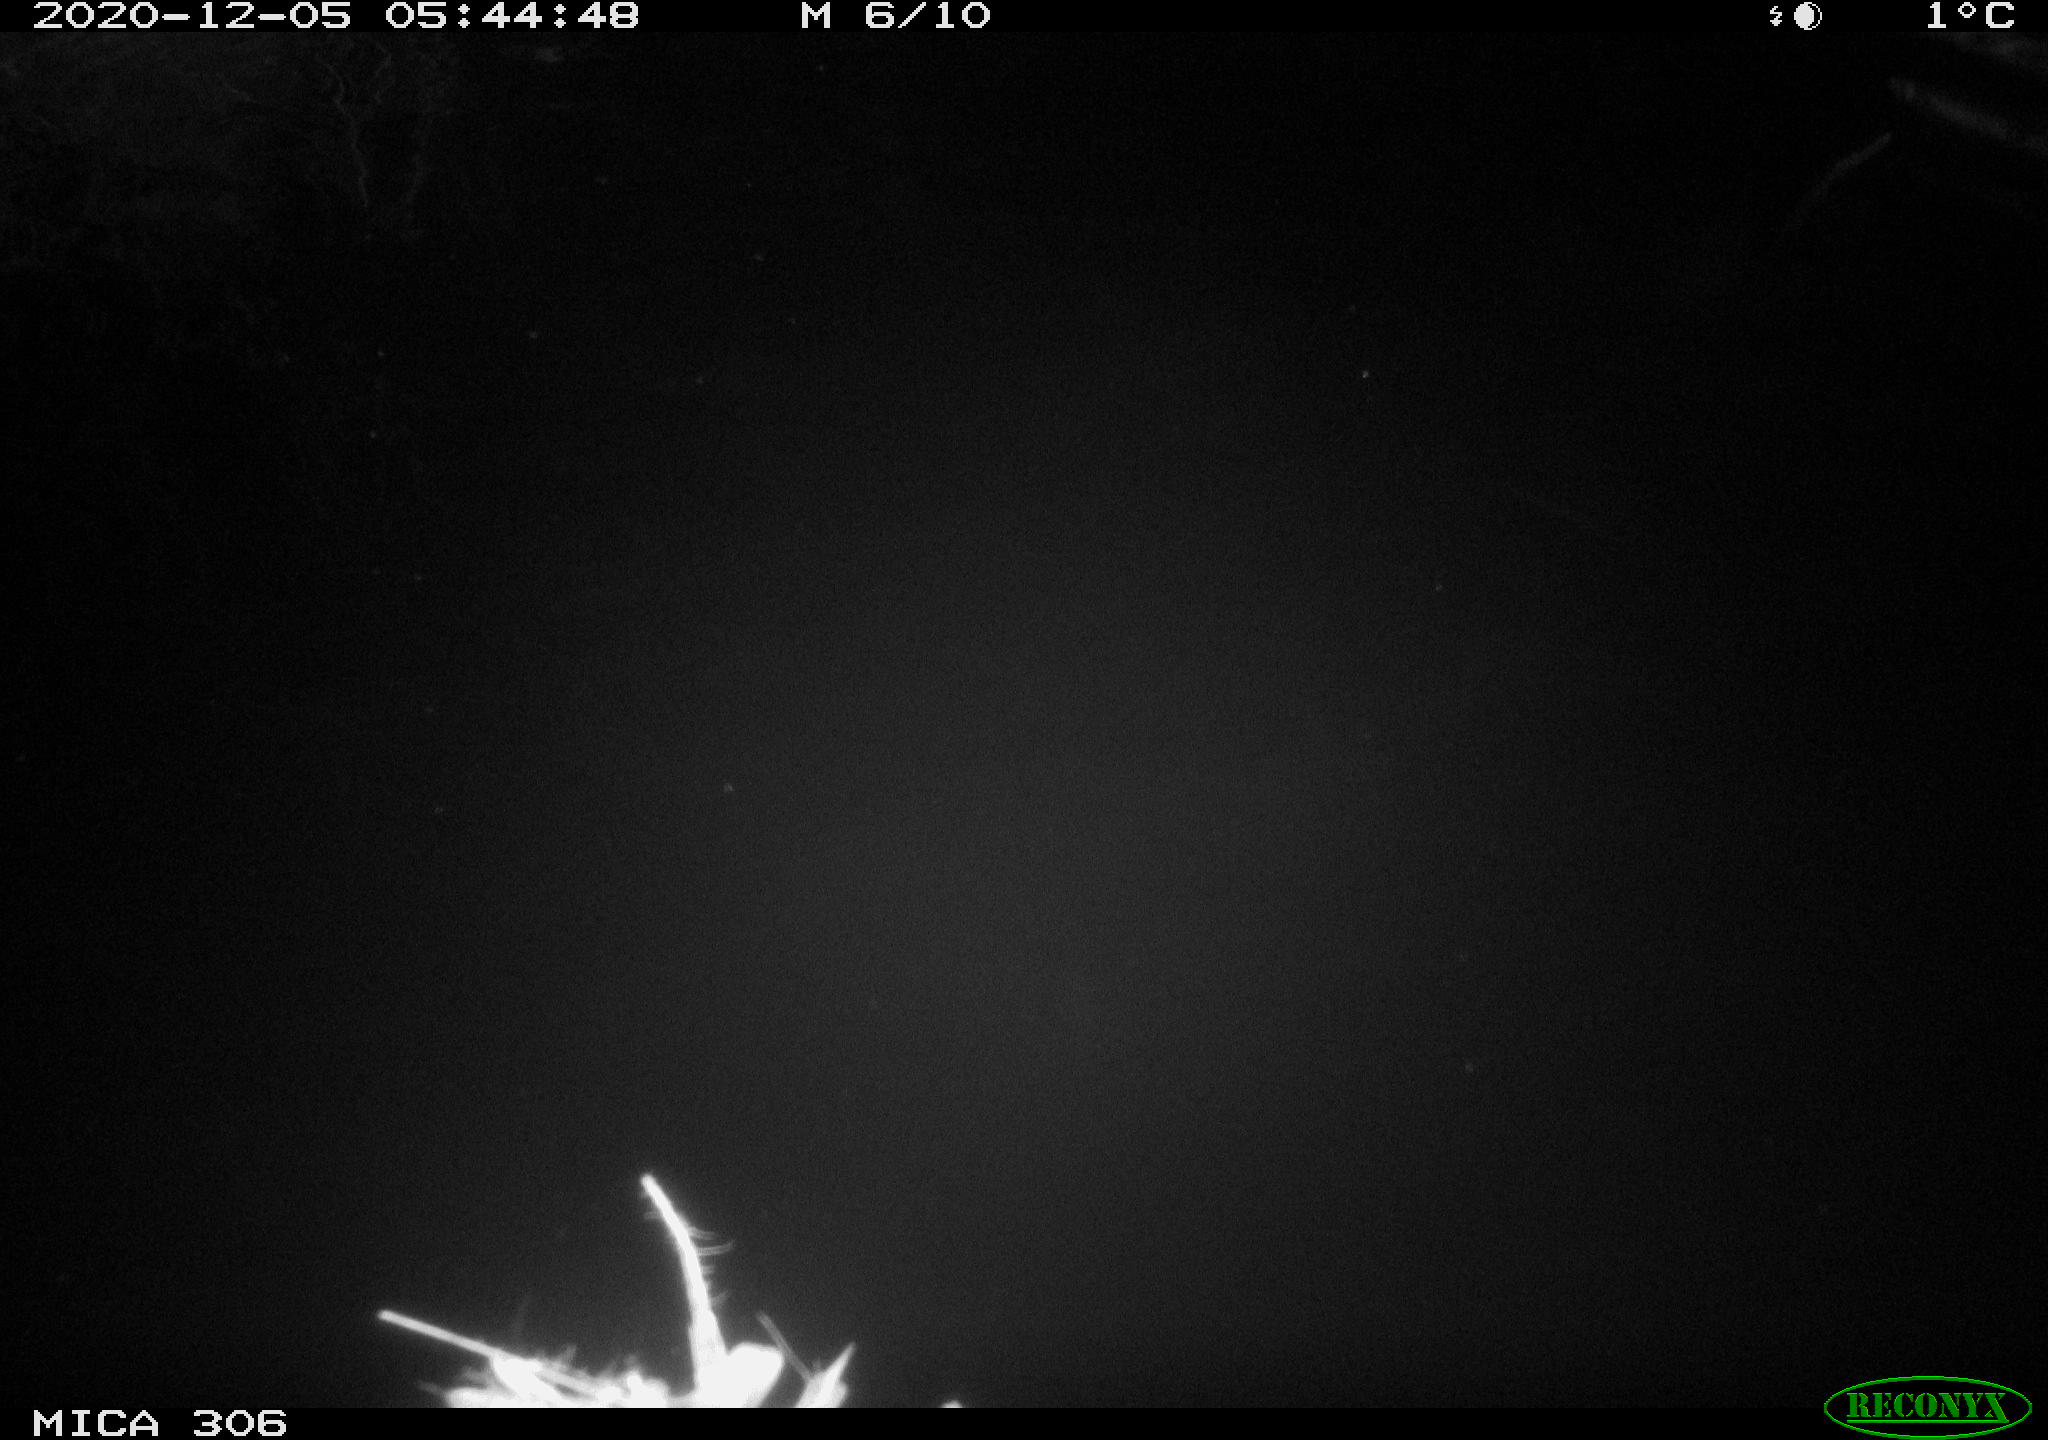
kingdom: Animalia
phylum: Chordata
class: Mammalia
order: Rodentia
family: Cricetidae
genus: Ondatra
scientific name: Ondatra zibethicus
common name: Muskrat
